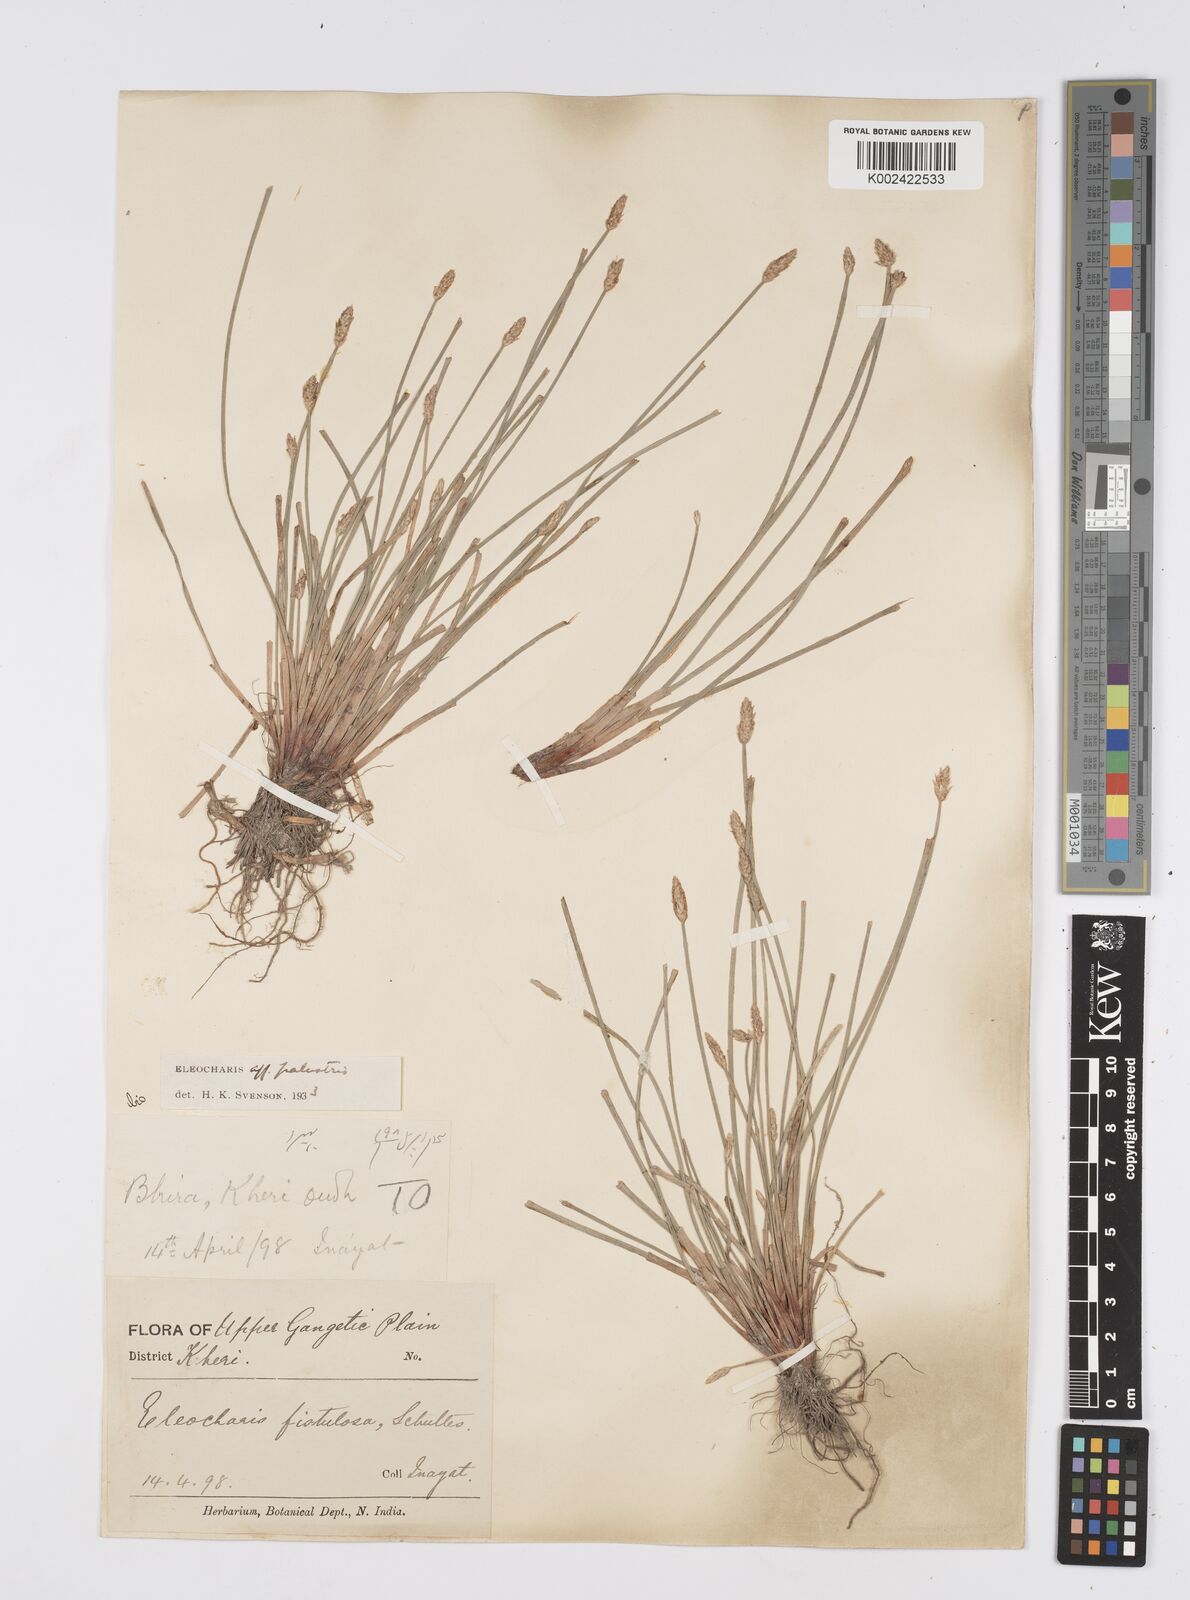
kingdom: Plantae
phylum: Tracheophyta
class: Liliopsida
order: Poales
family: Cyperaceae
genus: Eleocharis
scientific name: Eleocharis palustris
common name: Common spike-rush
